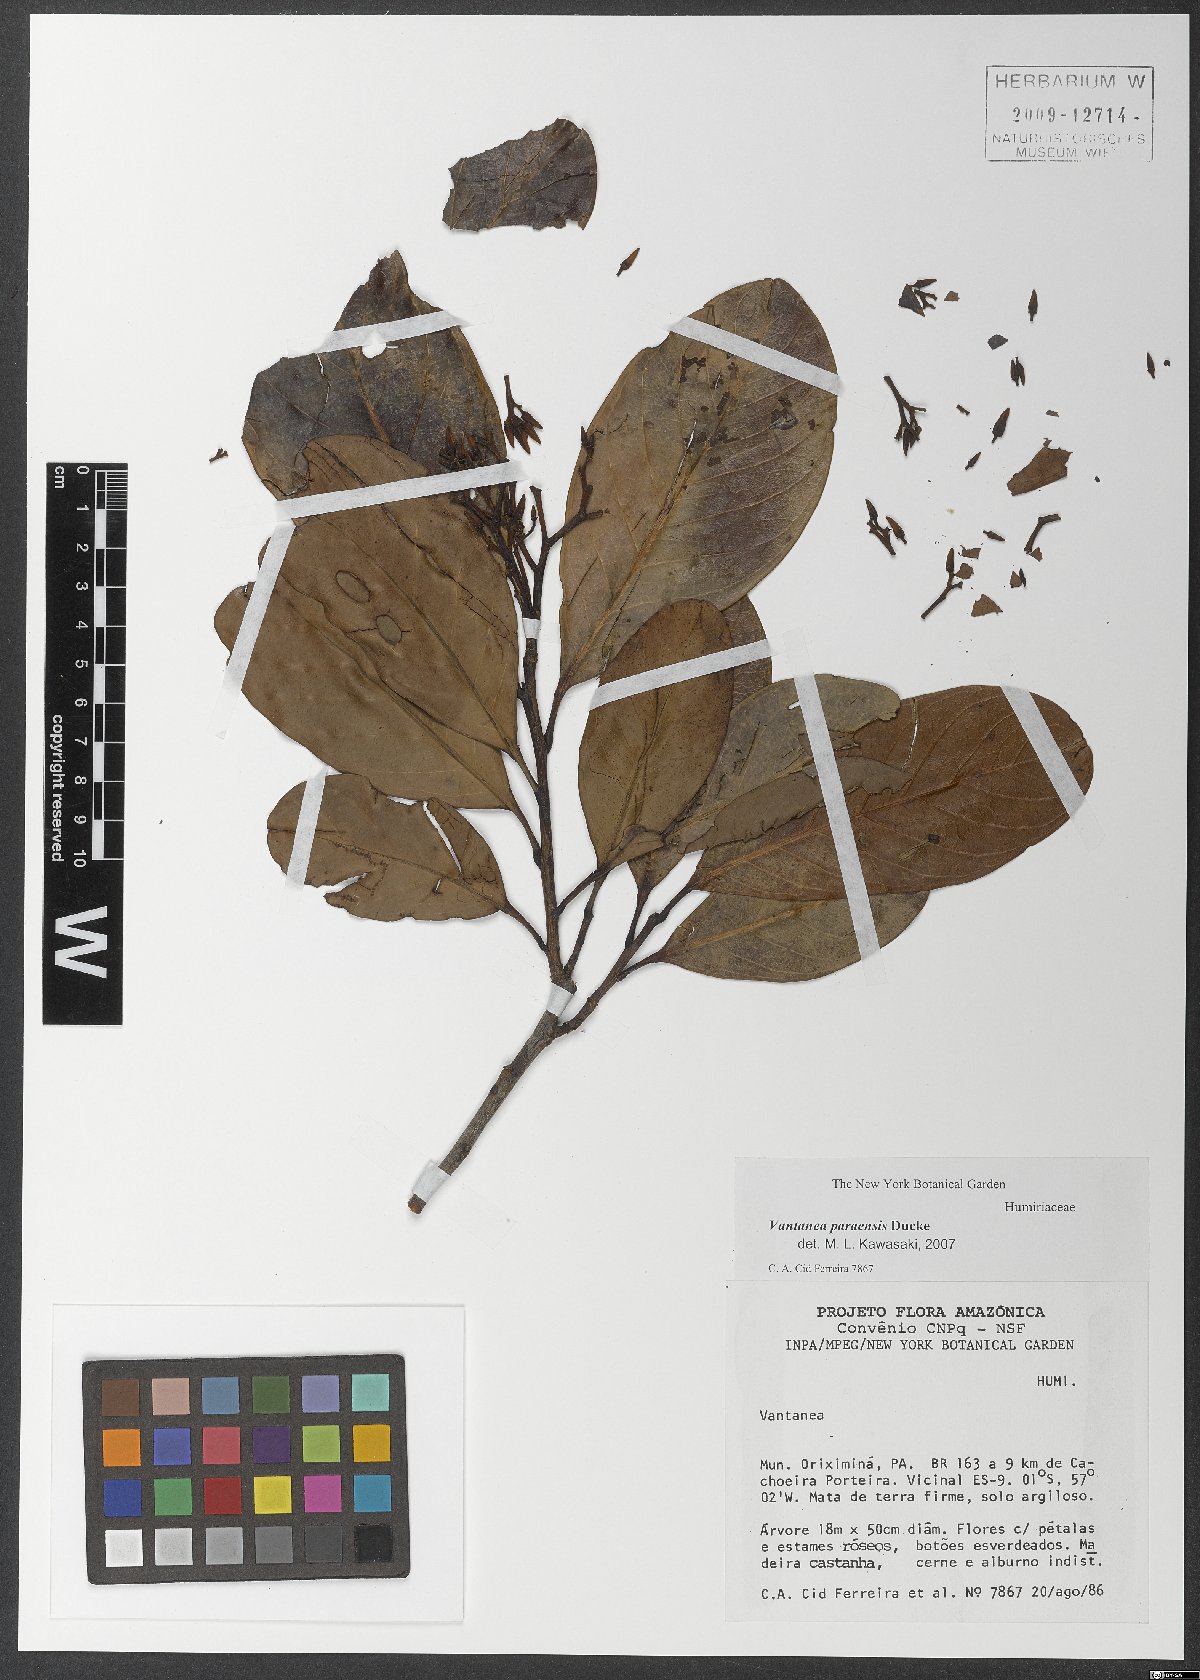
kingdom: Plantae
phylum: Tracheophyta
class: Magnoliopsida
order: Malpighiales
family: Humiriaceae
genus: Vantanea
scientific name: Vantanea paraensis
